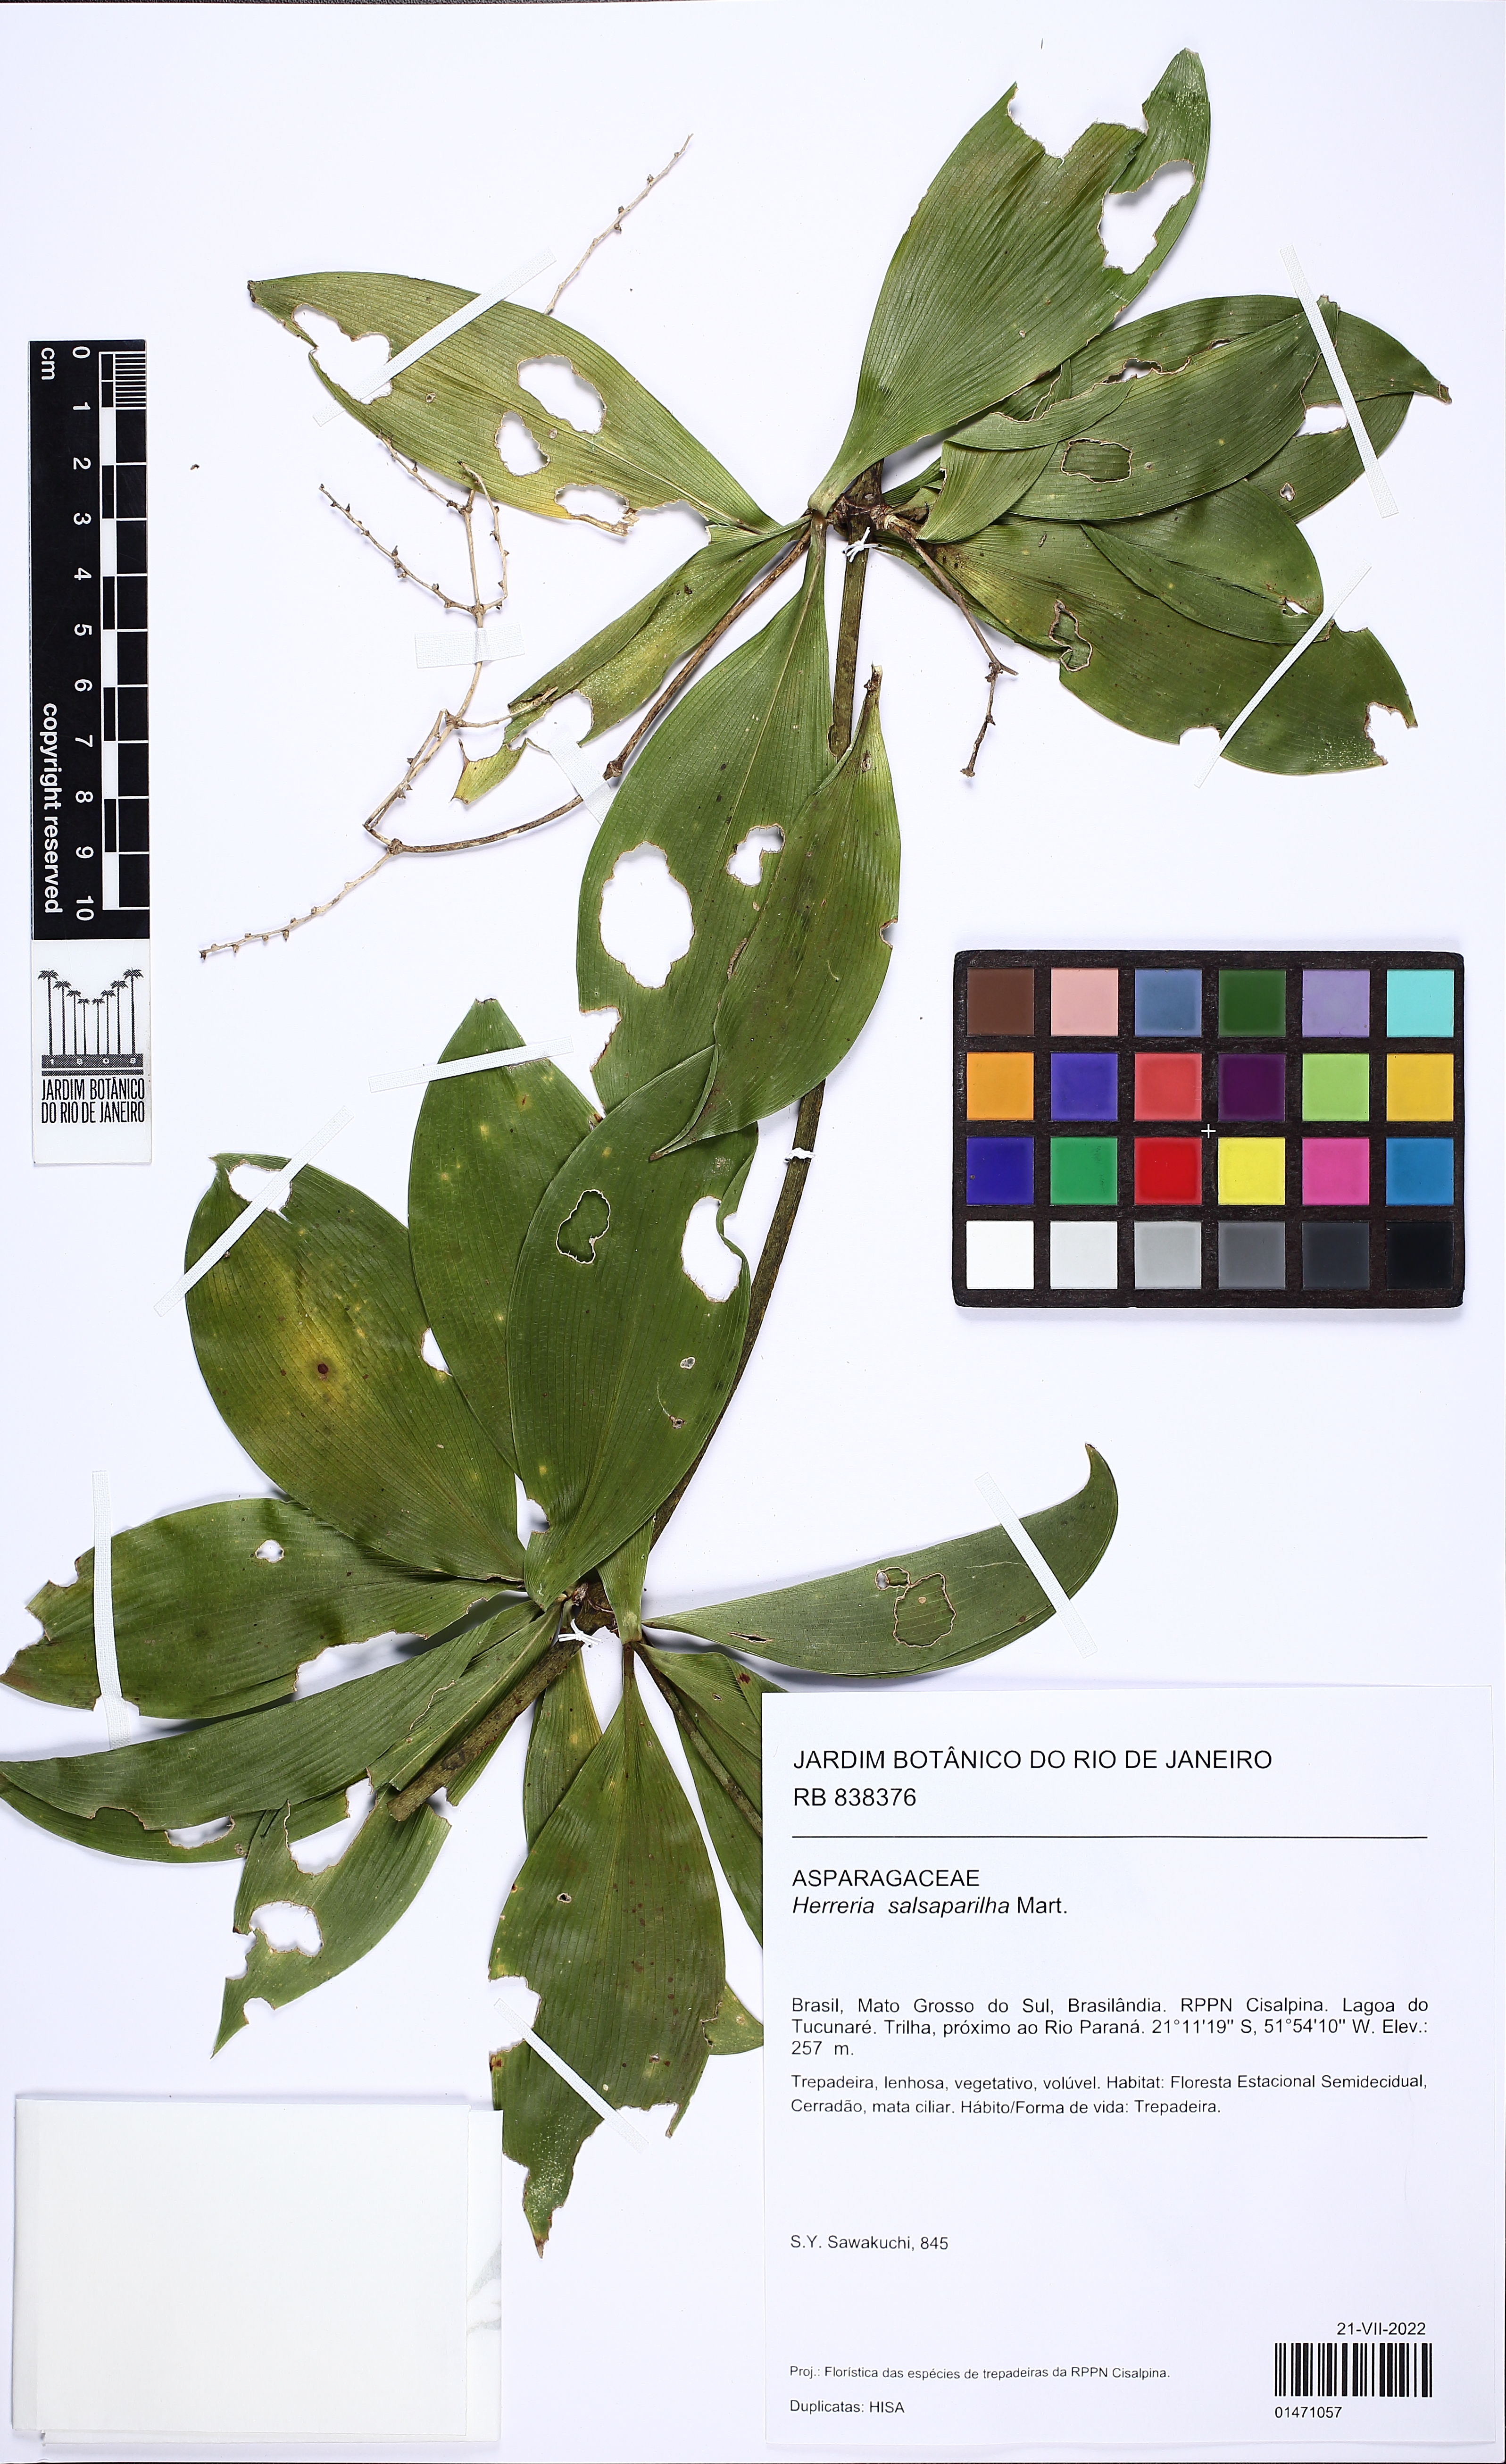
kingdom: Plantae
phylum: Tracheophyta
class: Liliopsida
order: Asparagales
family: Asparagaceae
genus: Herreria
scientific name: Herreria salsaparilha
